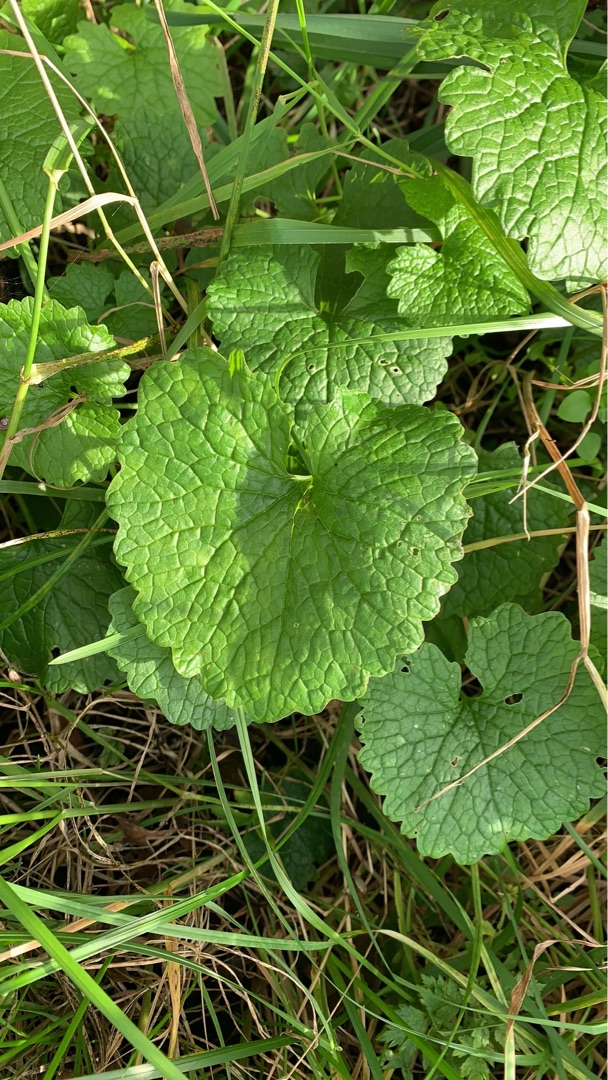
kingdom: Plantae
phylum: Tracheophyta
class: Magnoliopsida
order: Brassicales
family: Brassicaceae
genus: Alliaria
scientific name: Alliaria petiolata
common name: Løgkarse
